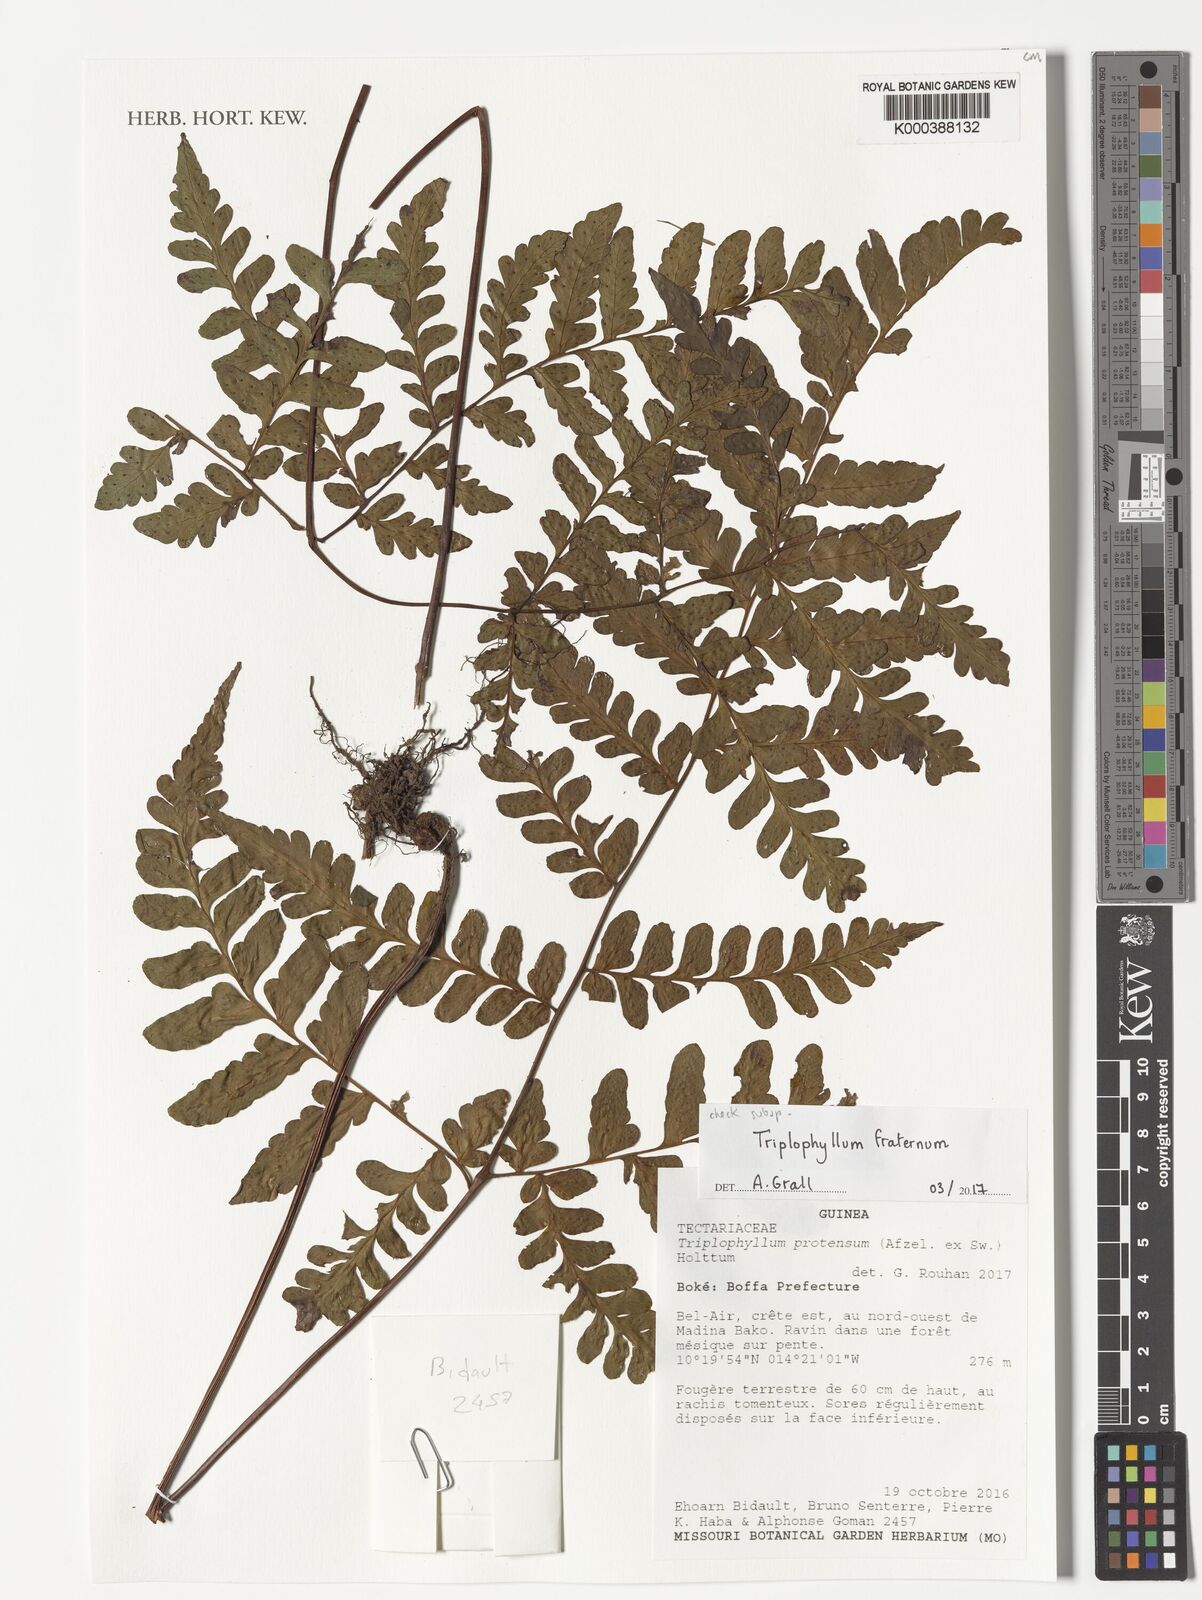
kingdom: Plantae
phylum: Tracheophyta
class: Polypodiopsida
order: Polypodiales
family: Tectariaceae
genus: Triplophyllum
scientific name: Triplophyllum fraternum
